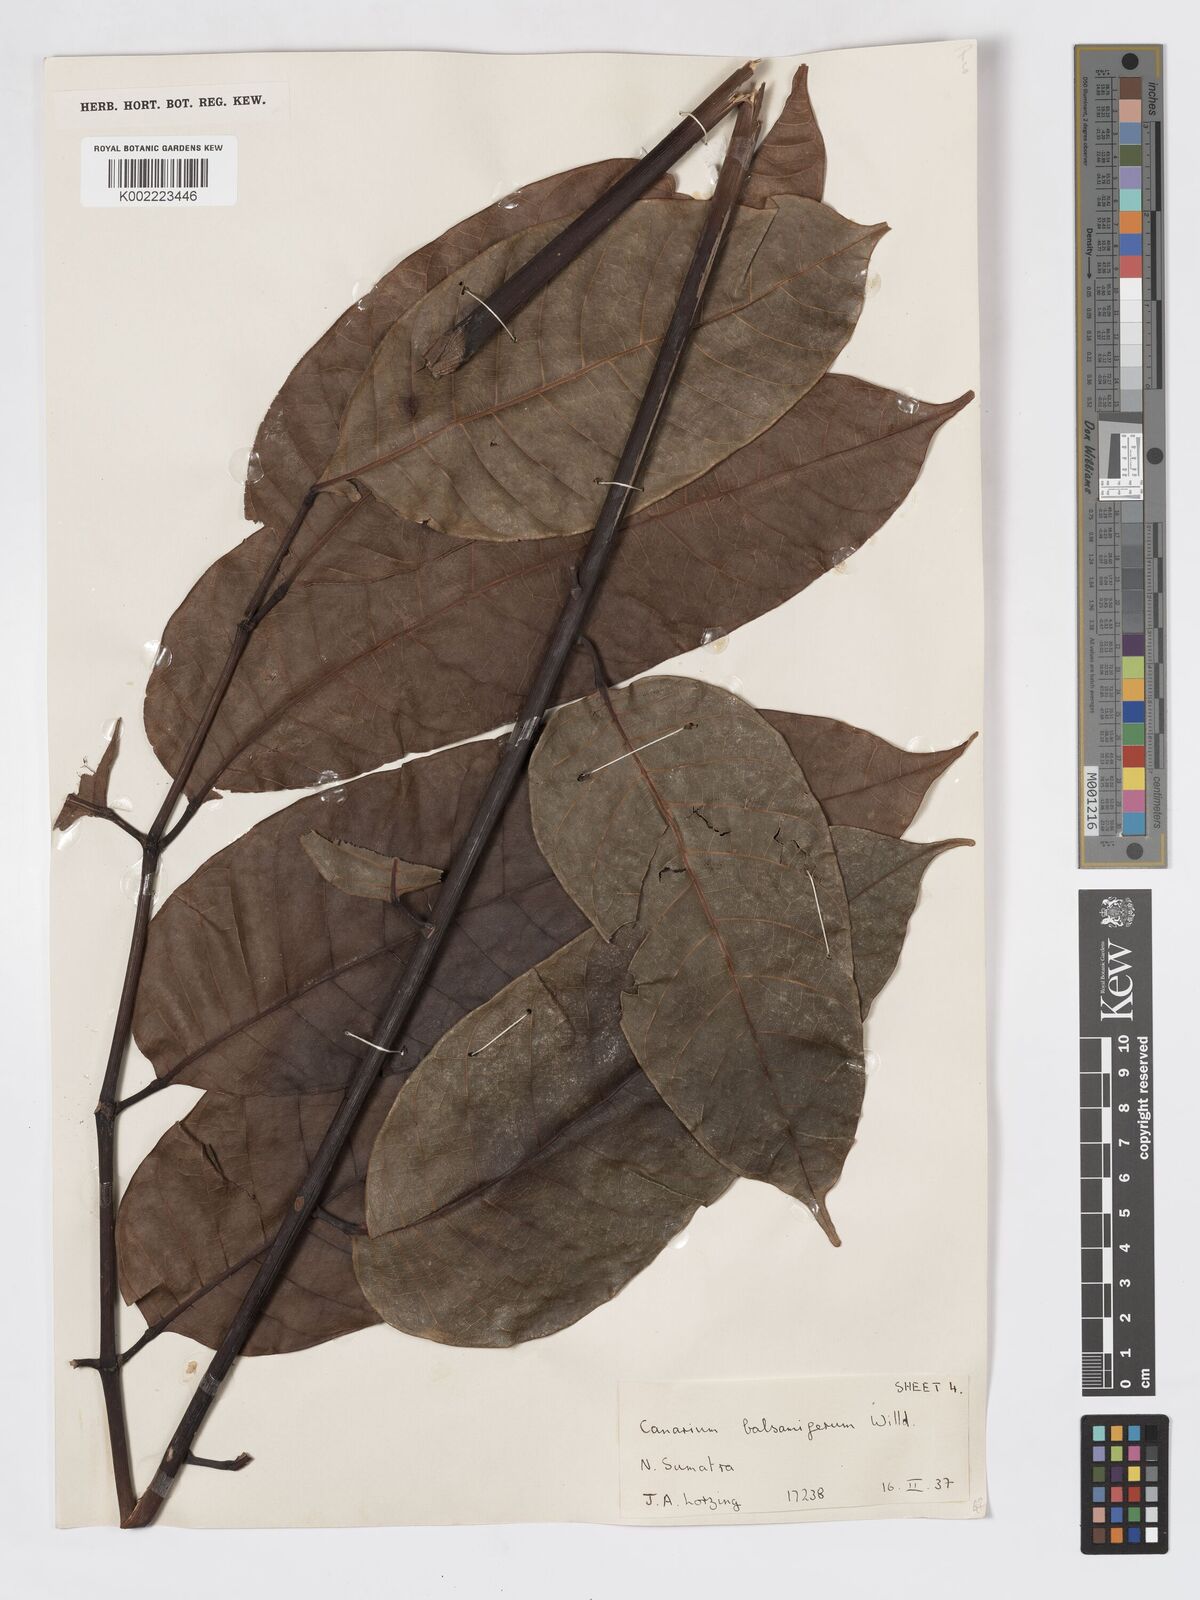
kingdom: Plantae
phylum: Tracheophyta
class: Magnoliopsida
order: Sapindales
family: Burseraceae
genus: Canarium
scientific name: Canarium
